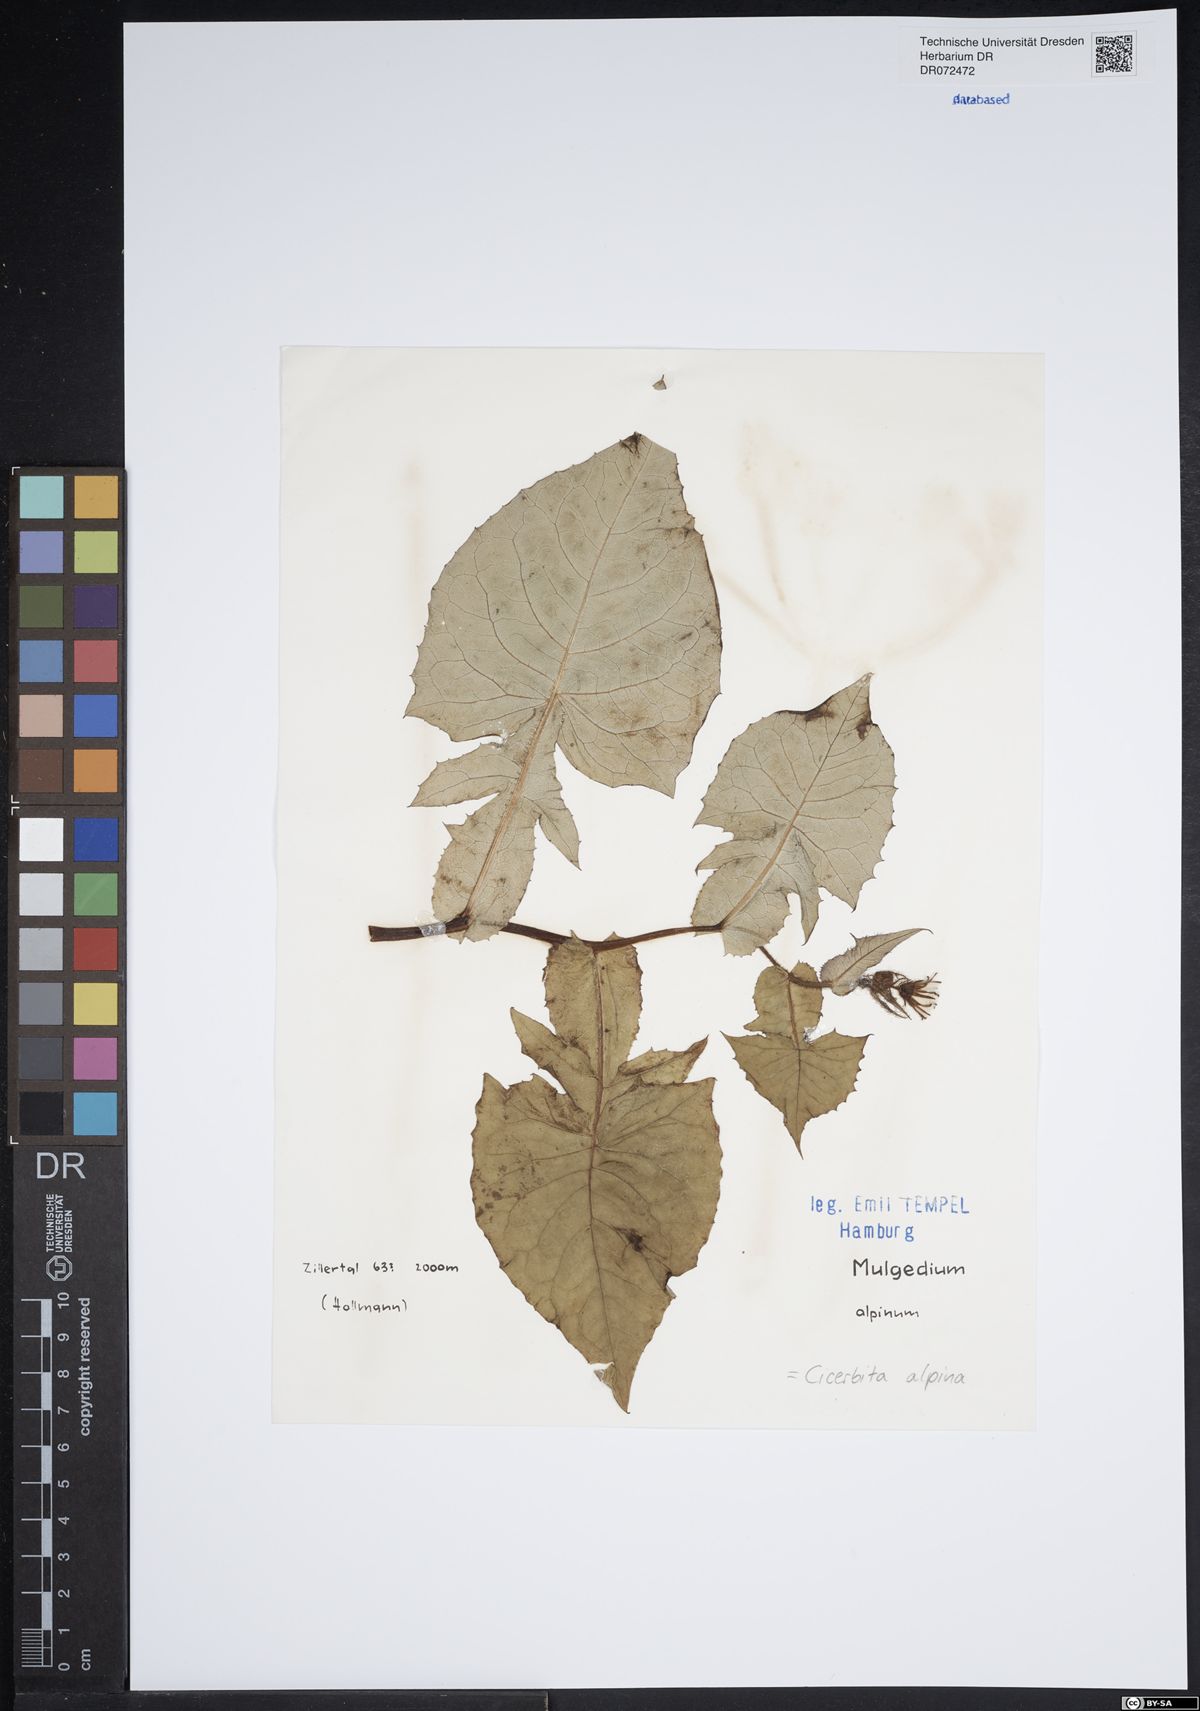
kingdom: Plantae
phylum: Tracheophyta
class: Magnoliopsida
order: Asterales
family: Asteraceae
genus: Cicerbita
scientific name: Cicerbita alpina
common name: Alpine blue-sow-thistle
